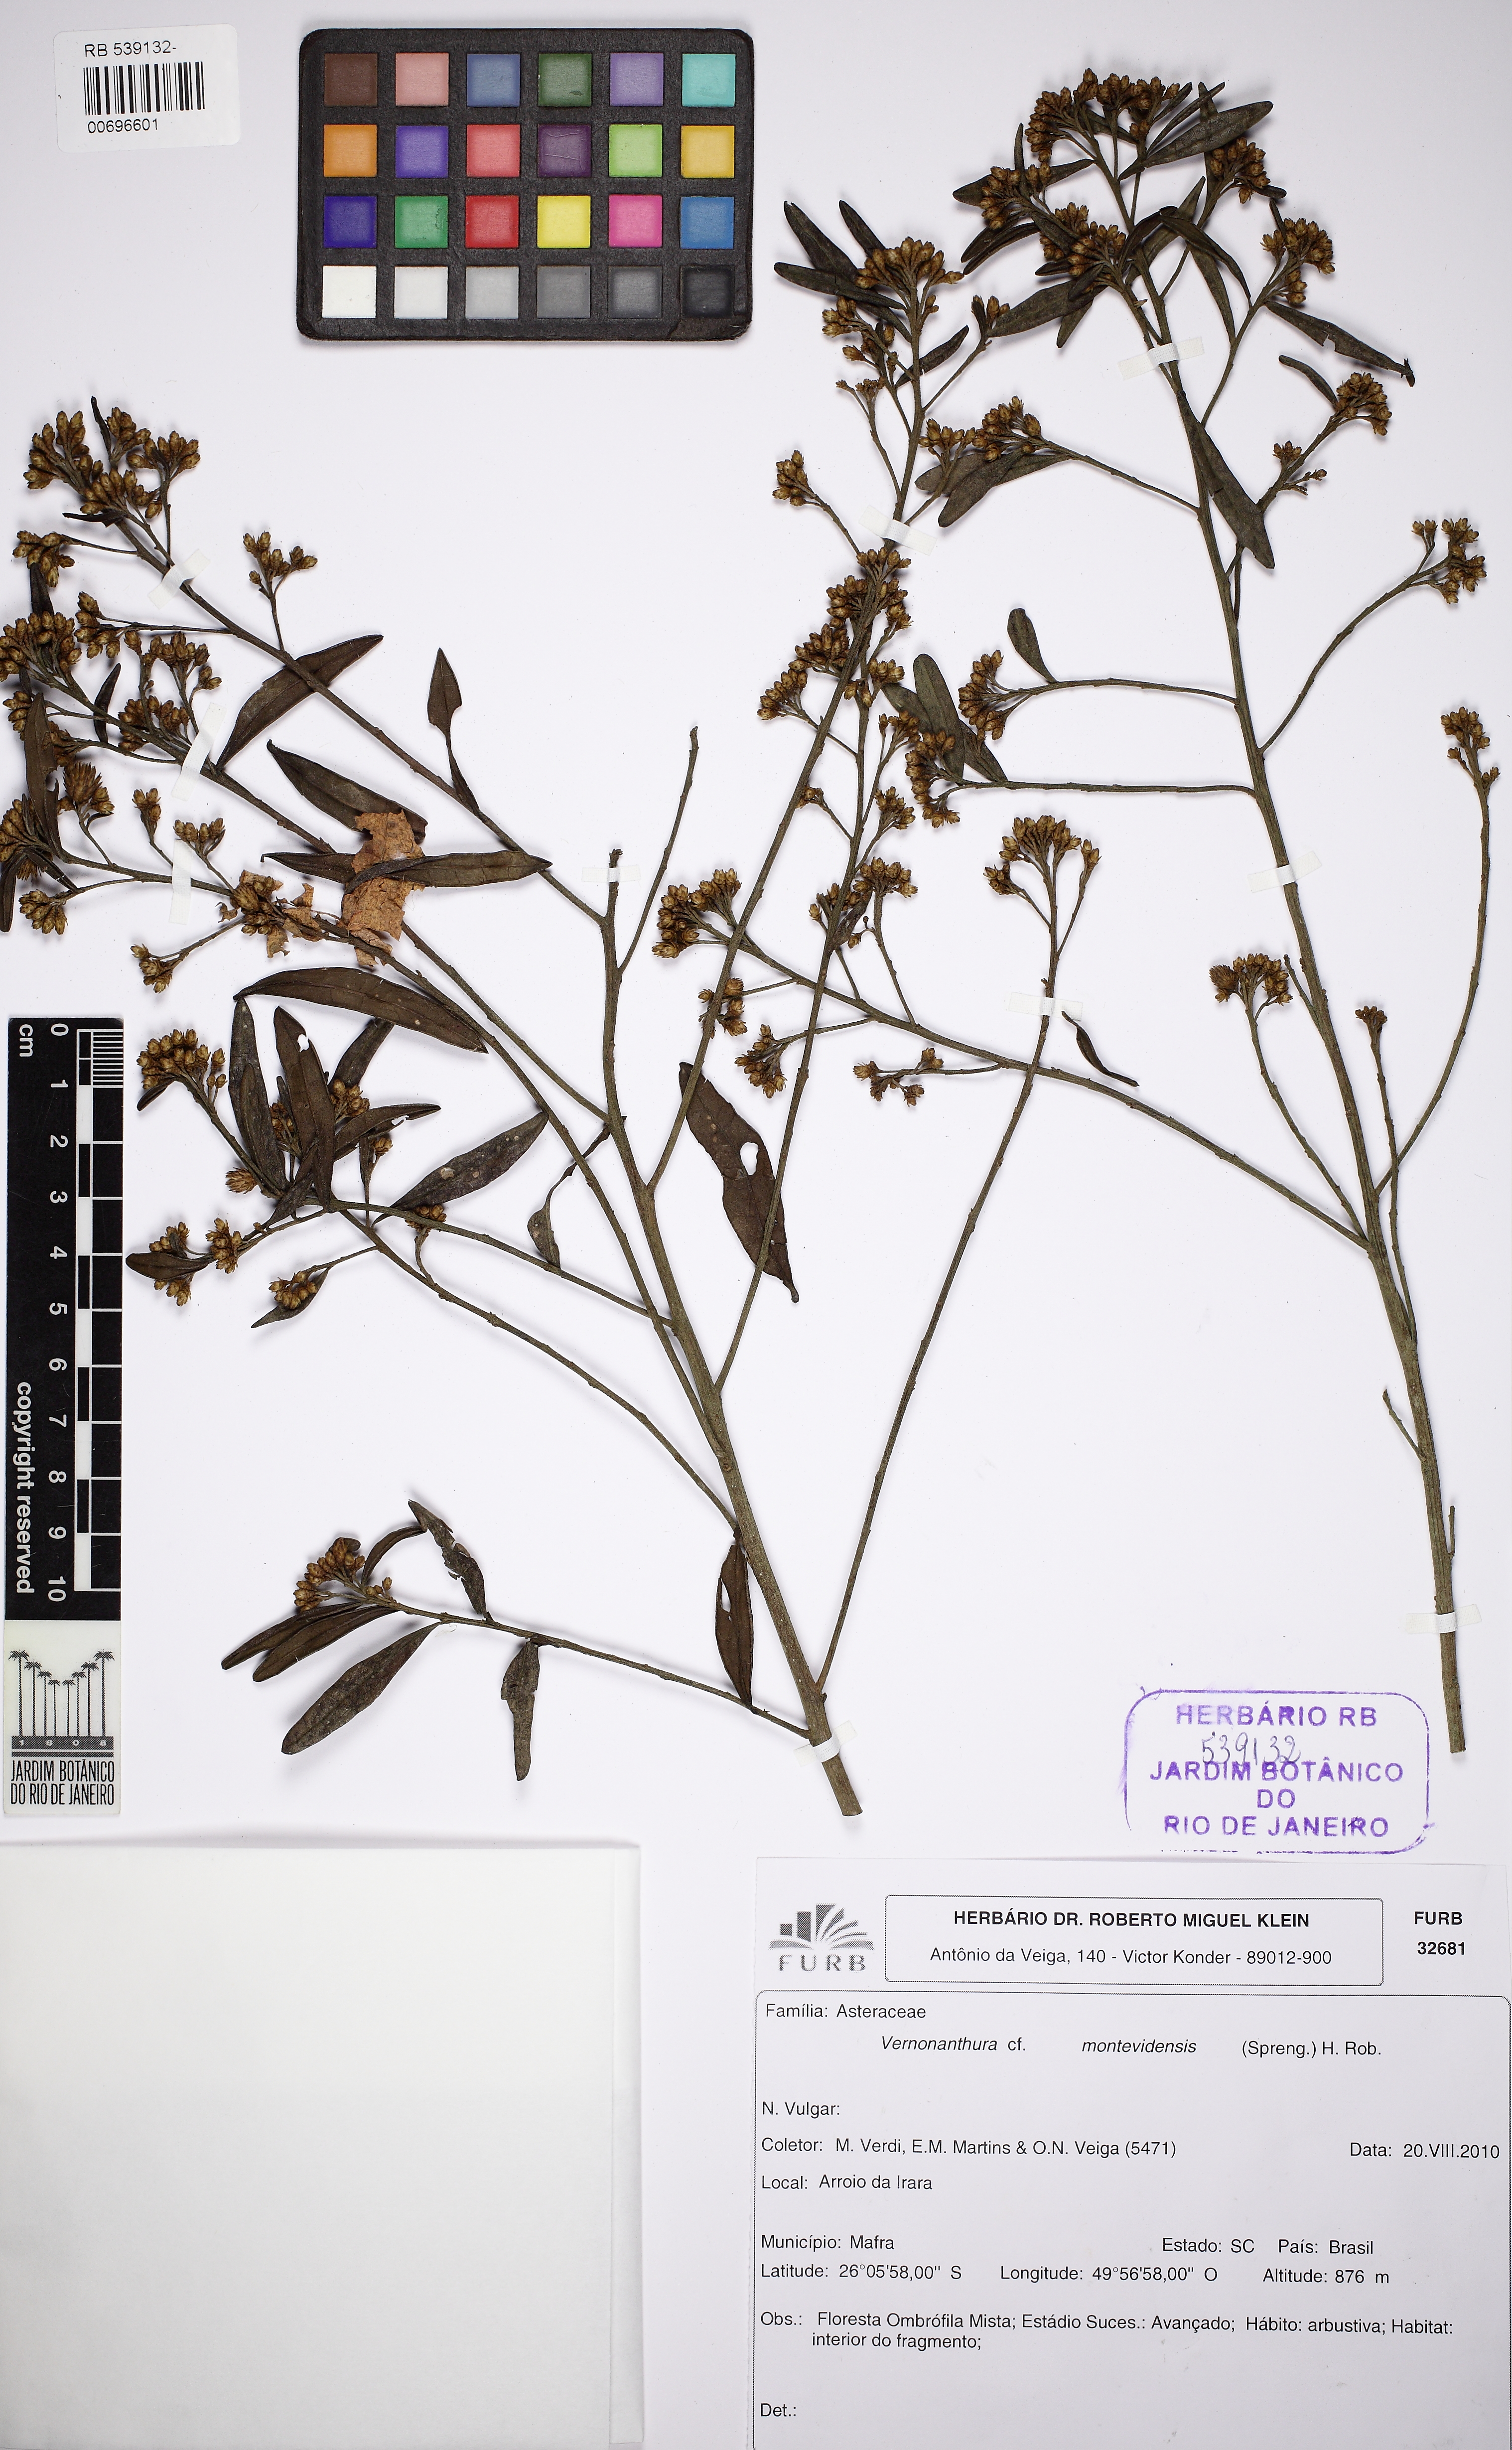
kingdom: Plantae
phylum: Tracheophyta
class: Magnoliopsida
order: Asterales
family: Asteraceae
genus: Vernonanthura
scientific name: Vernonanthura montevidensis
